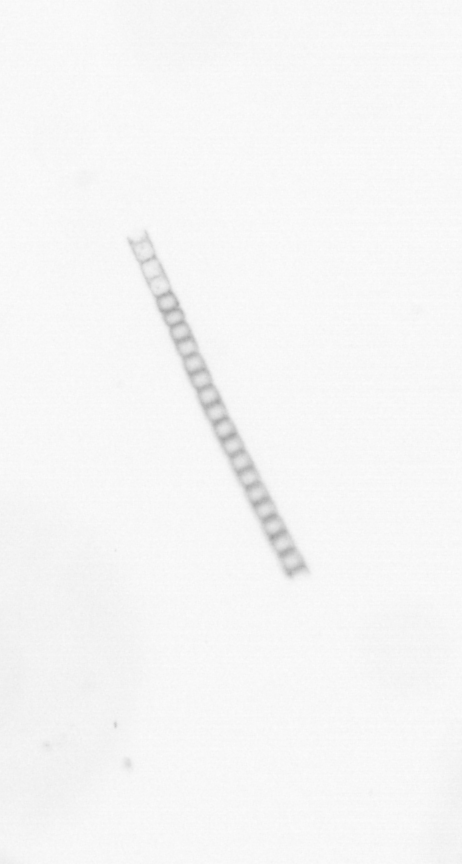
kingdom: Chromista
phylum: Ochrophyta
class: Bacillariophyceae
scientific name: Bacillariophyceae
